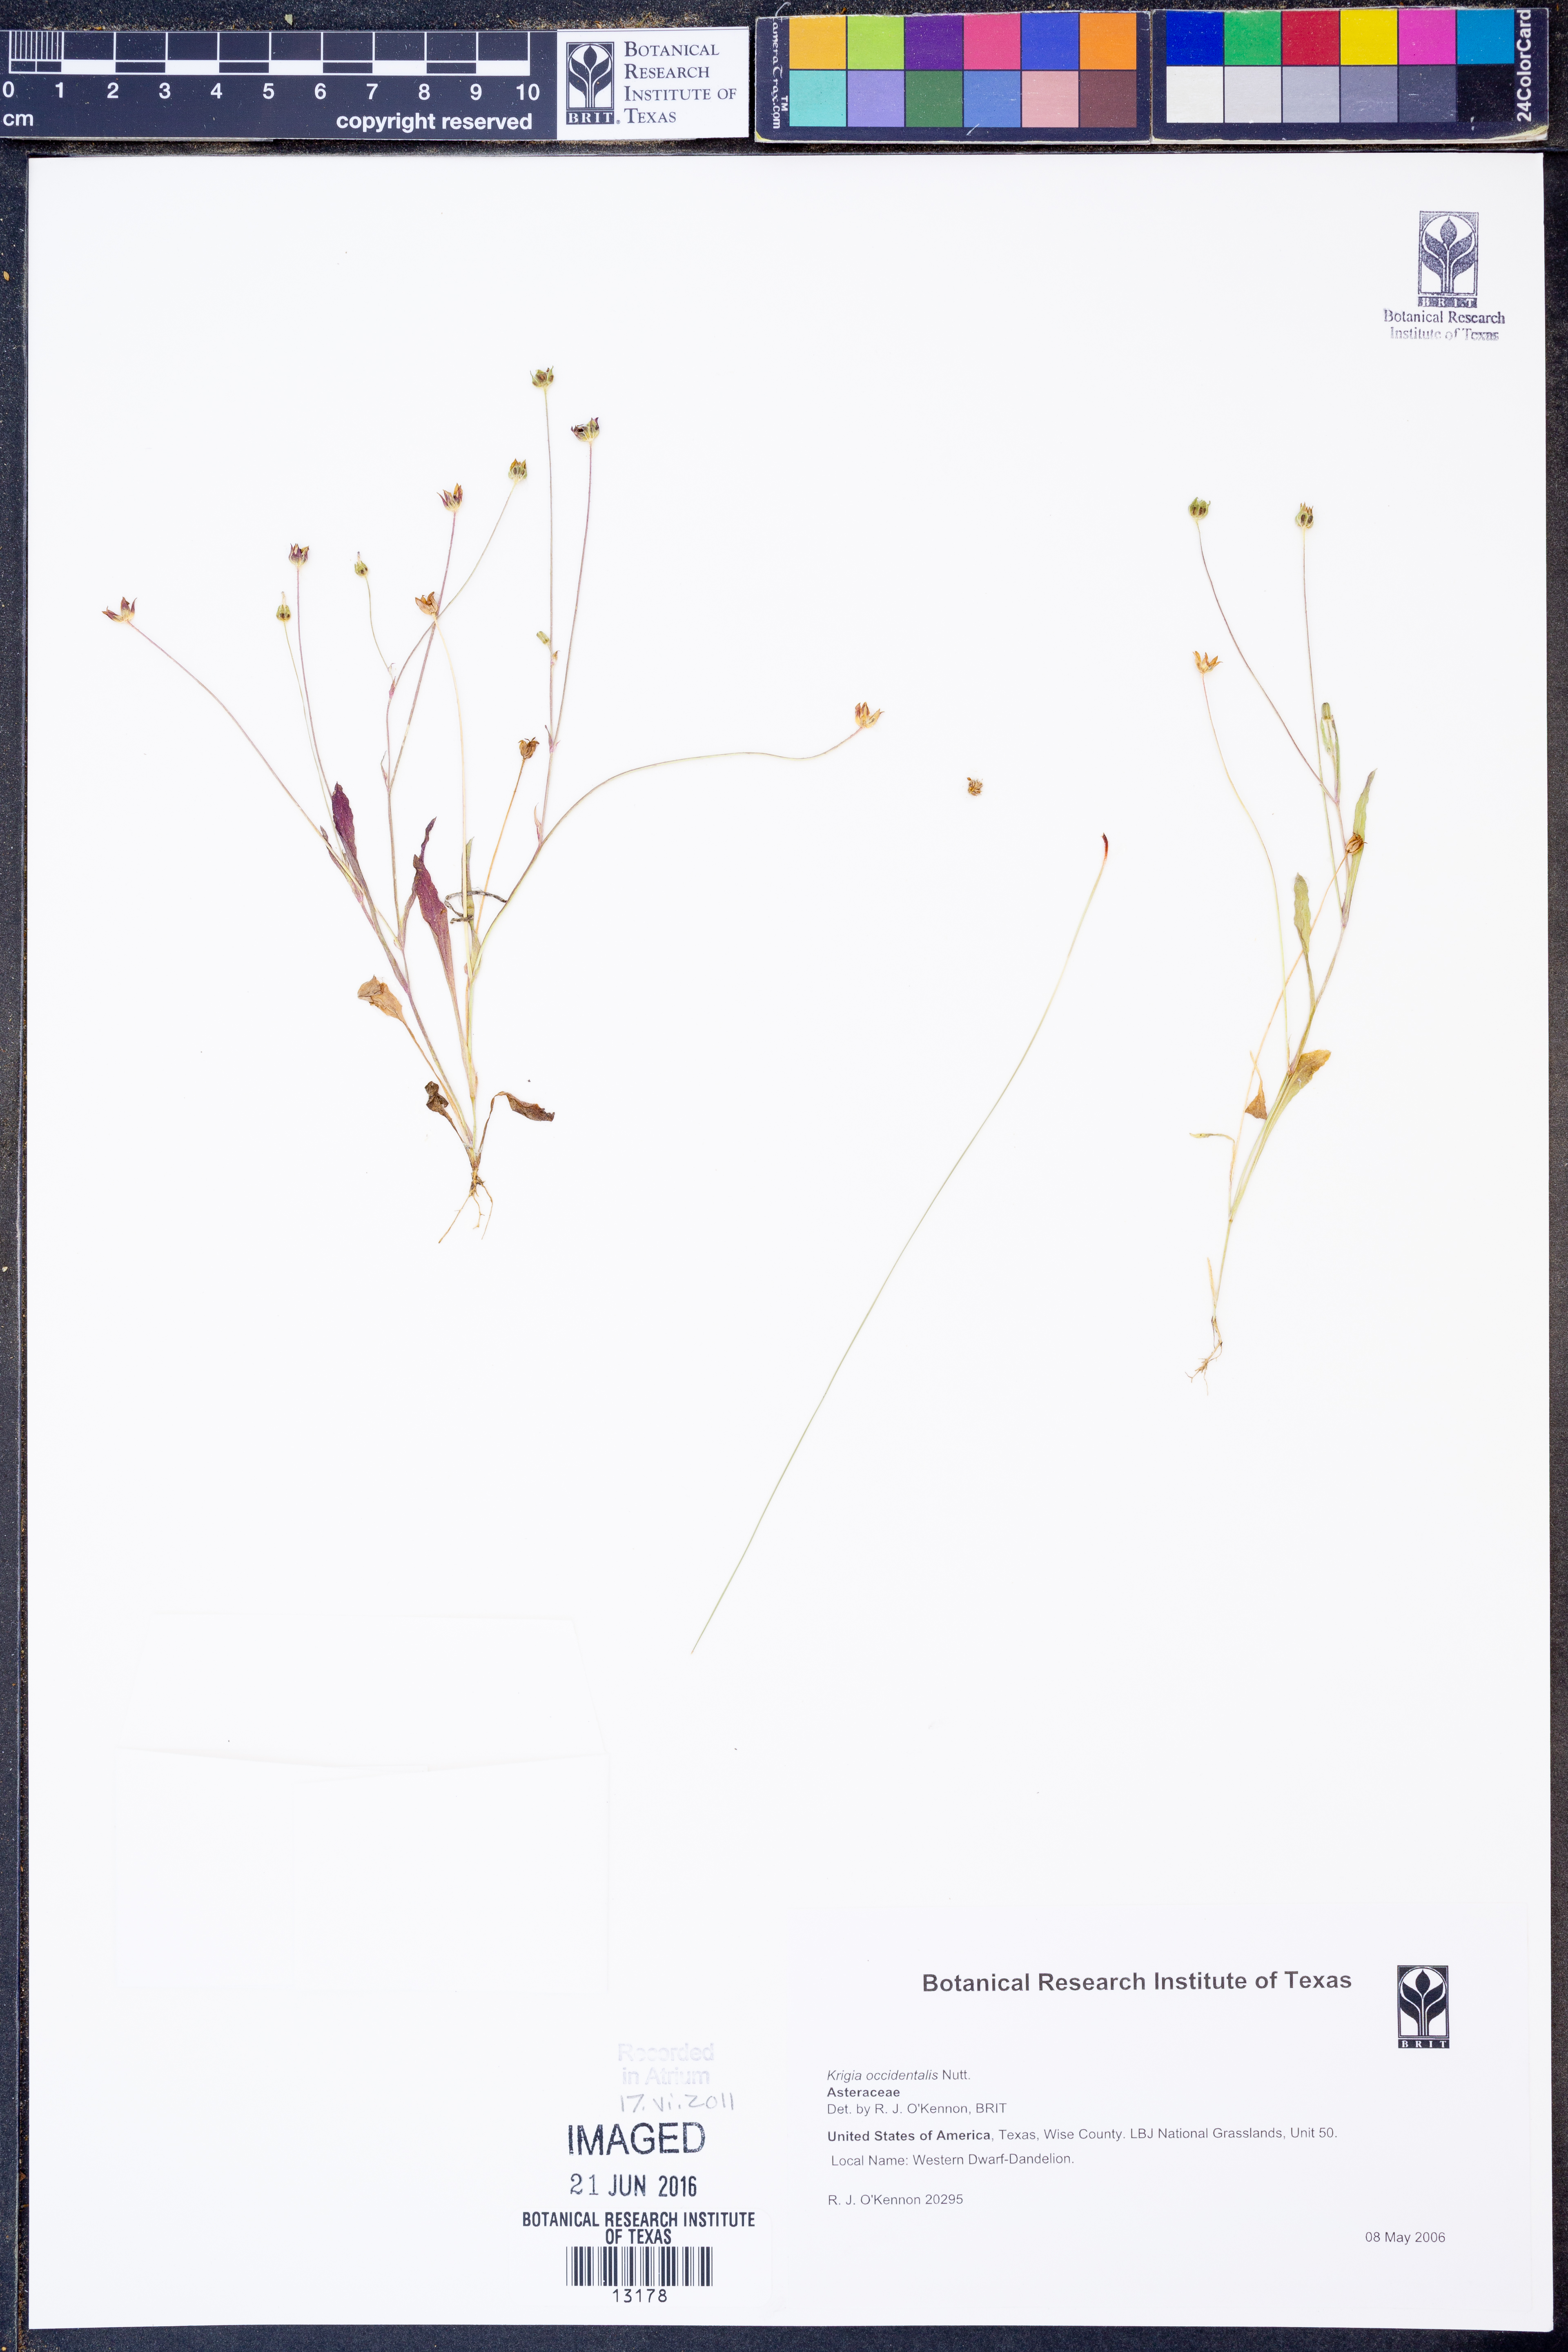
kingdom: Plantae
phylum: Tracheophyta
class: Magnoliopsida
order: Asterales
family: Asteraceae
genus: Krigia
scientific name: Krigia occidentalis
